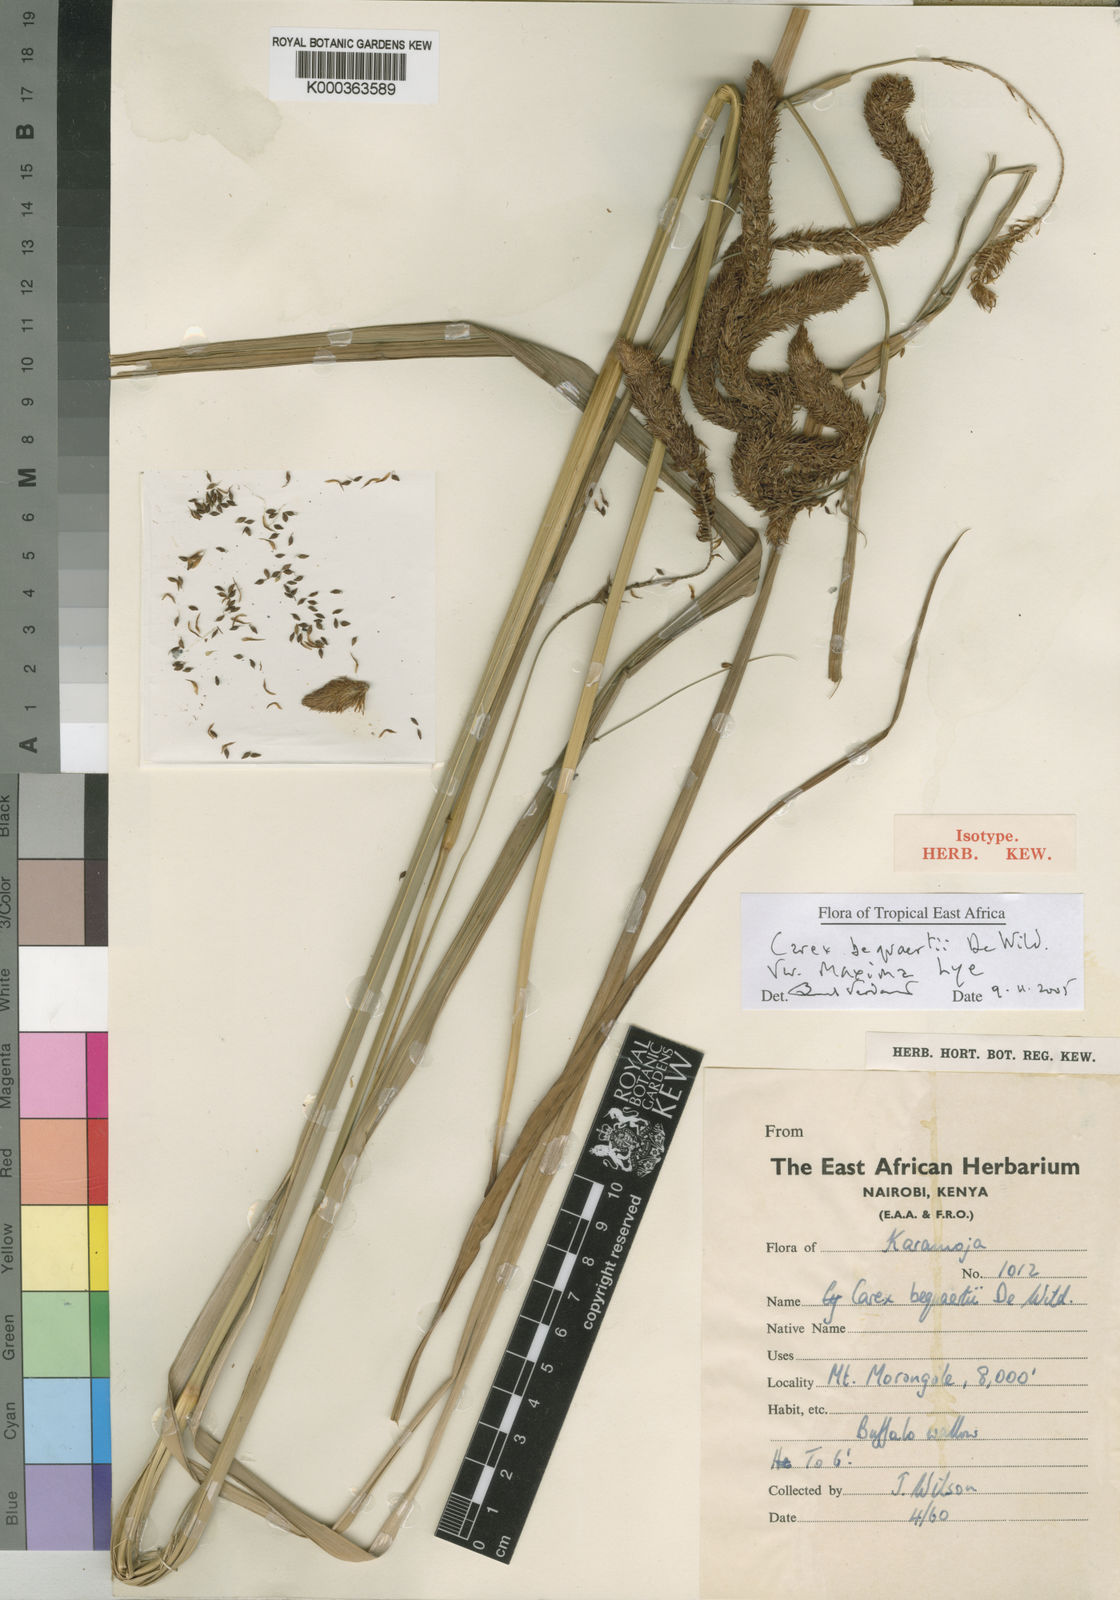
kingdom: Plantae
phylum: Tracheophyta
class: Liliopsida
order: Poales
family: Cyperaceae
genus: Carex
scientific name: Carex bequaertii
